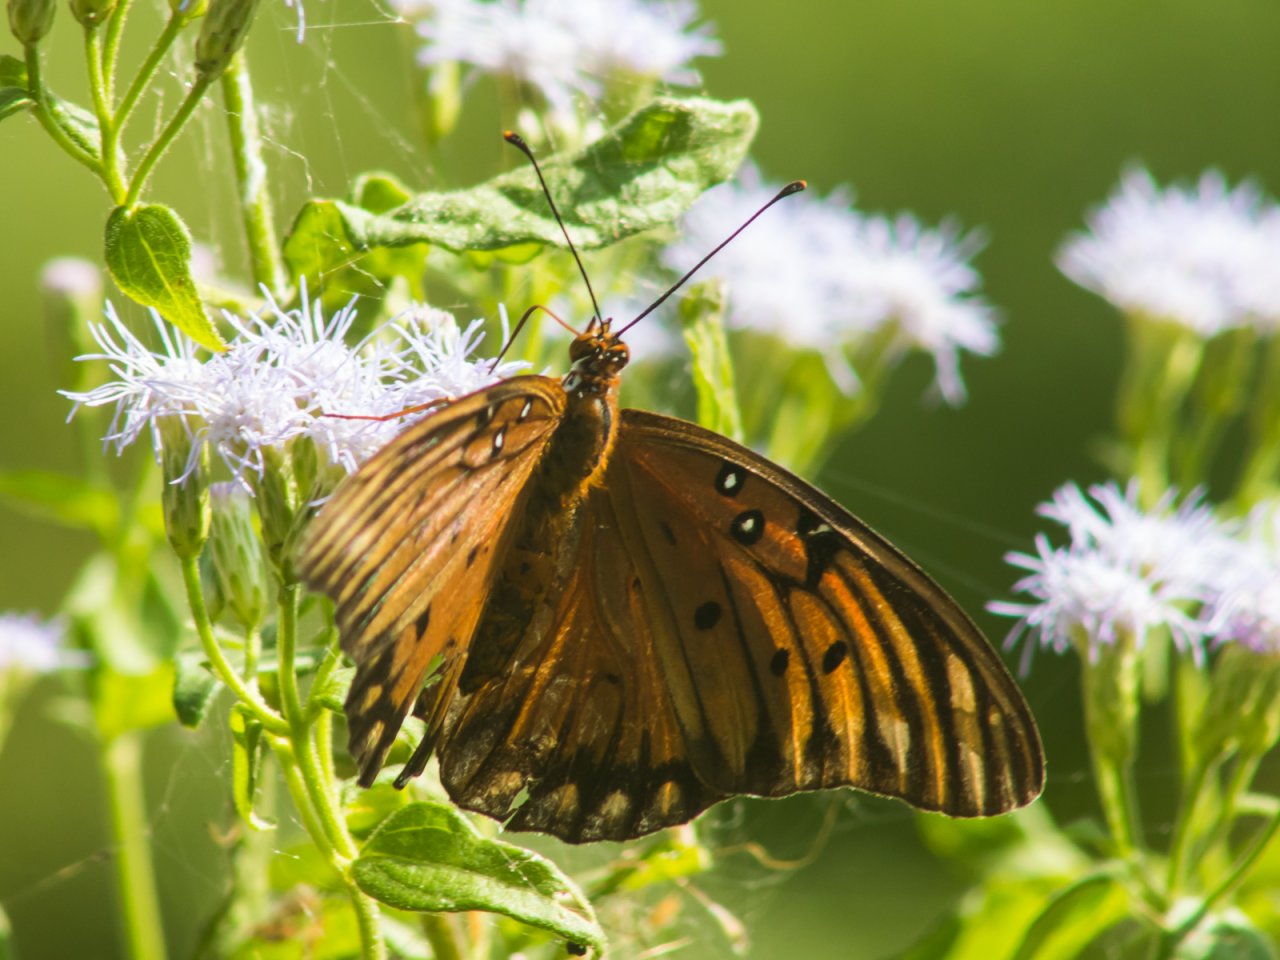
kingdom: Animalia
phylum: Arthropoda
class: Insecta
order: Lepidoptera
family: Nymphalidae
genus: Dione
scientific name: Dione vanillae
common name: Gulf Fritillary
